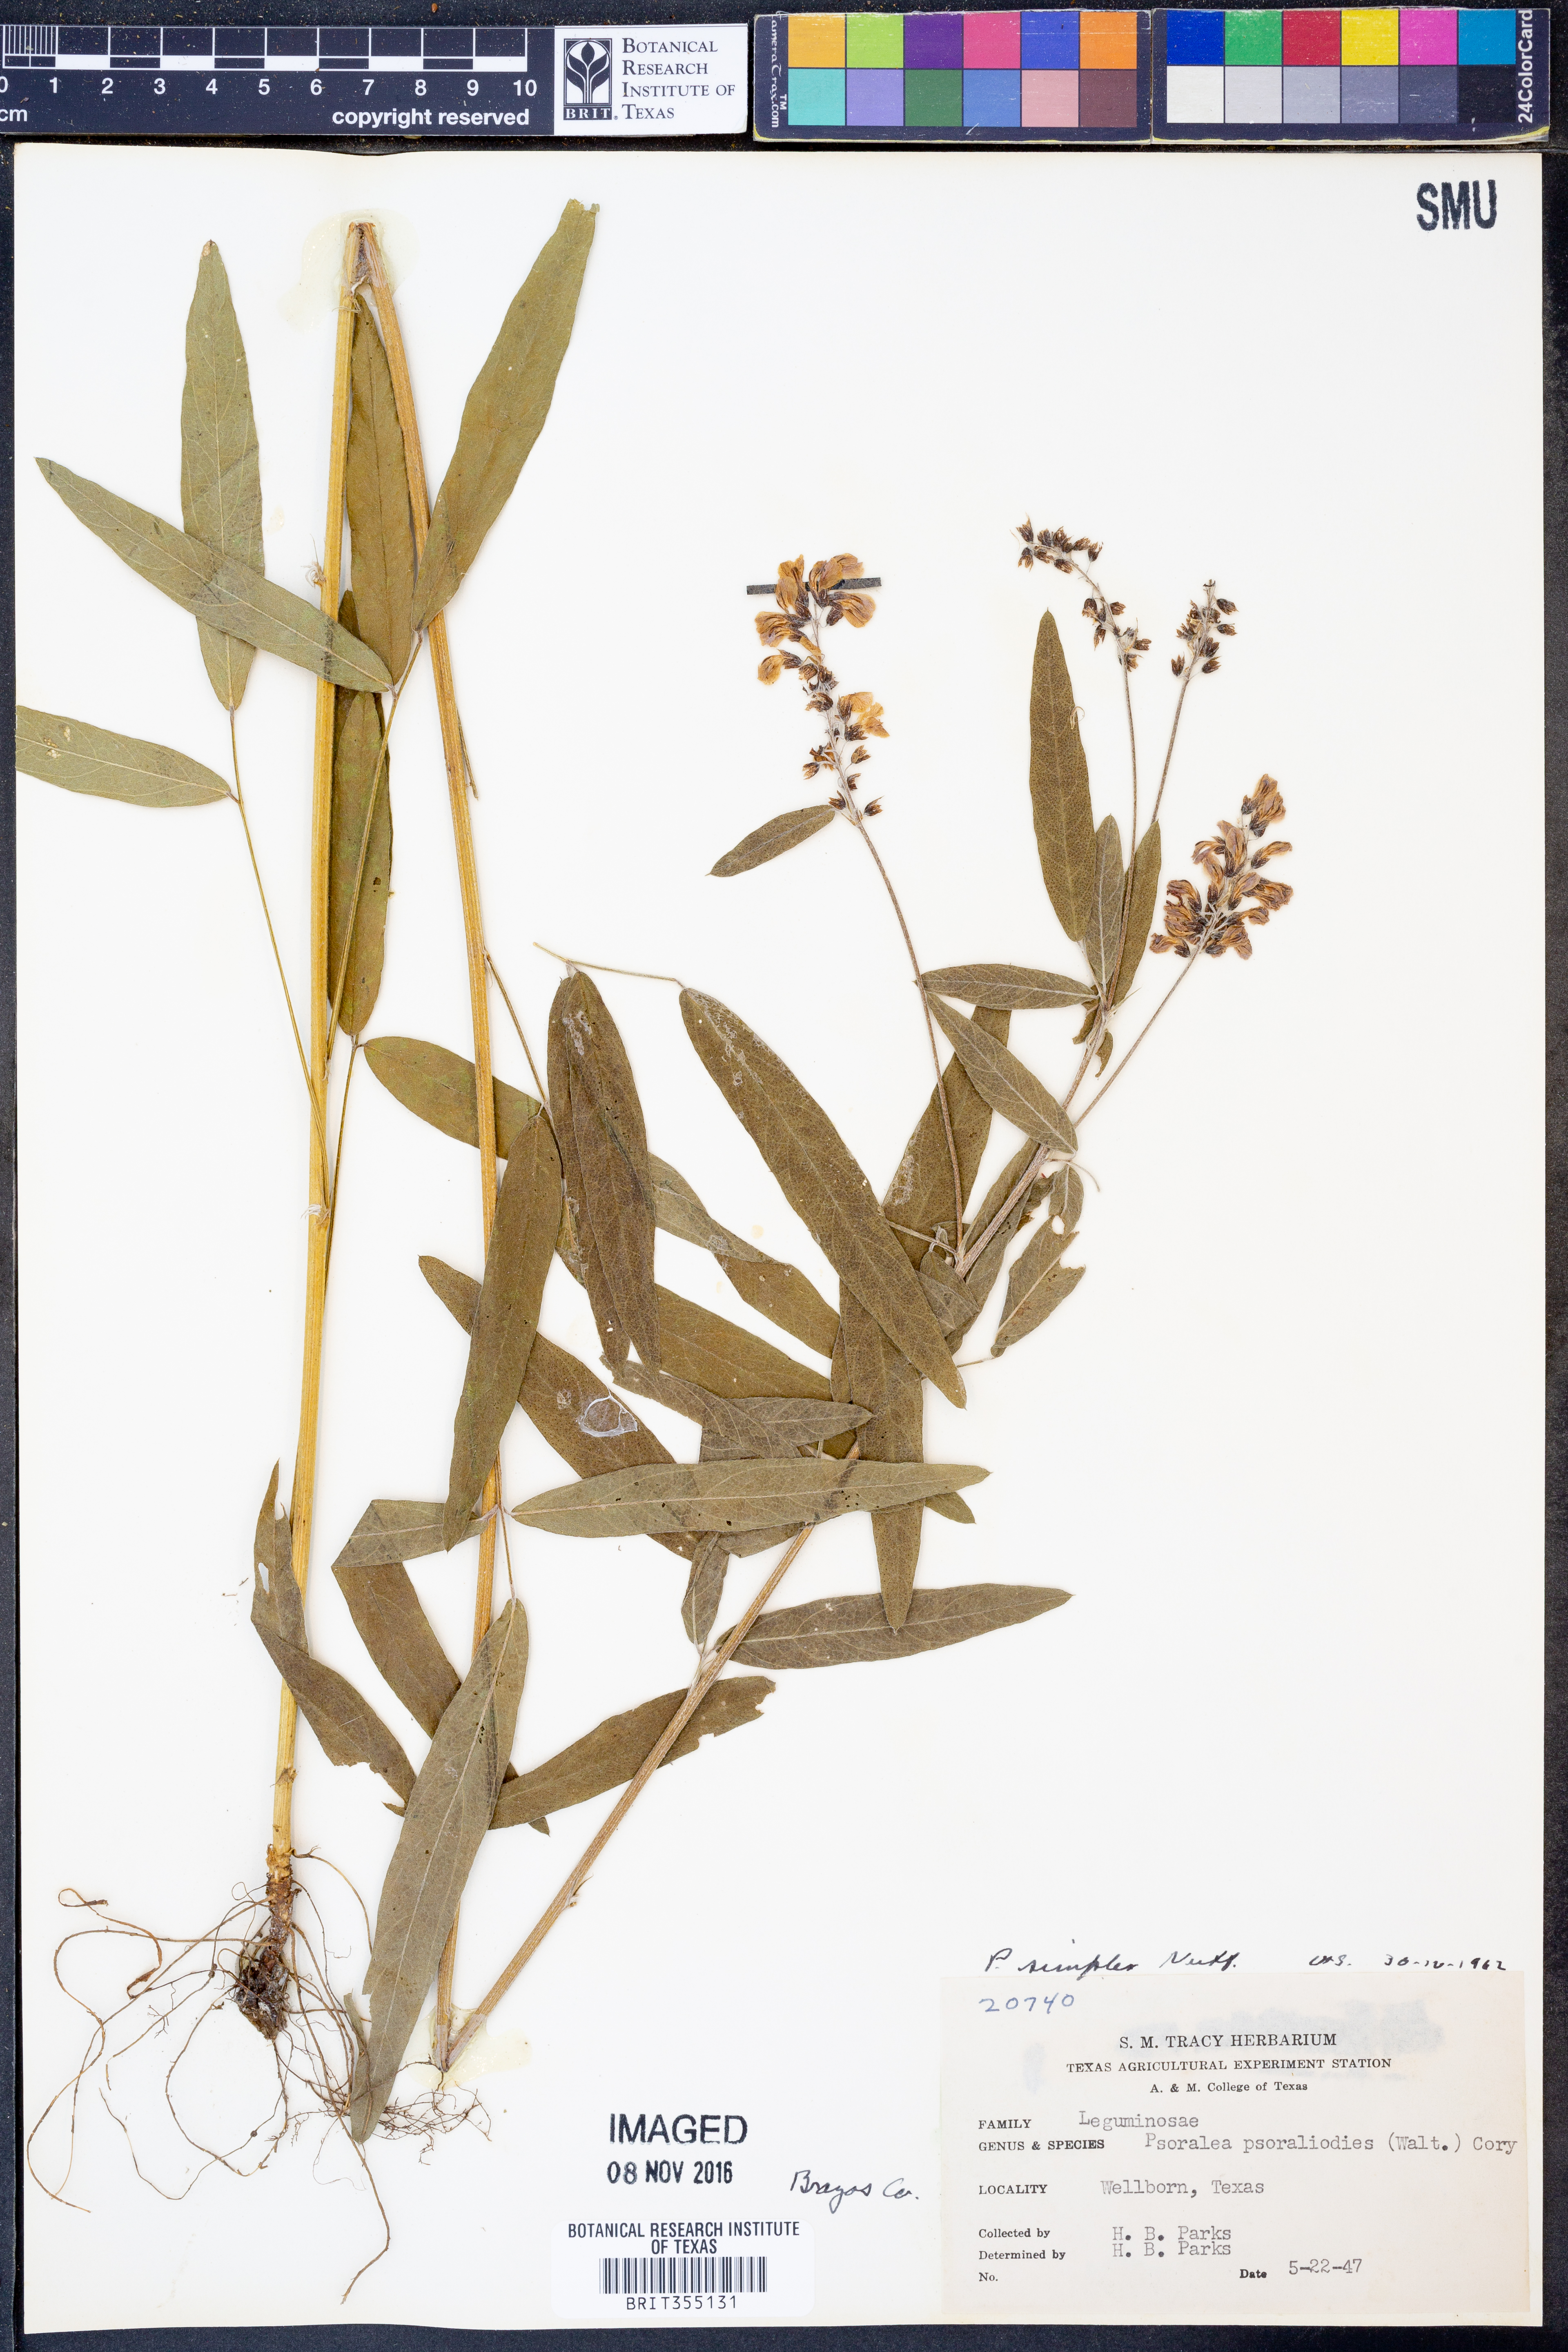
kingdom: Plantae
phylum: Tracheophyta
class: Magnoliopsida
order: Fabales
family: Fabaceae
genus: Orbexilum
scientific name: Orbexilum simplex
